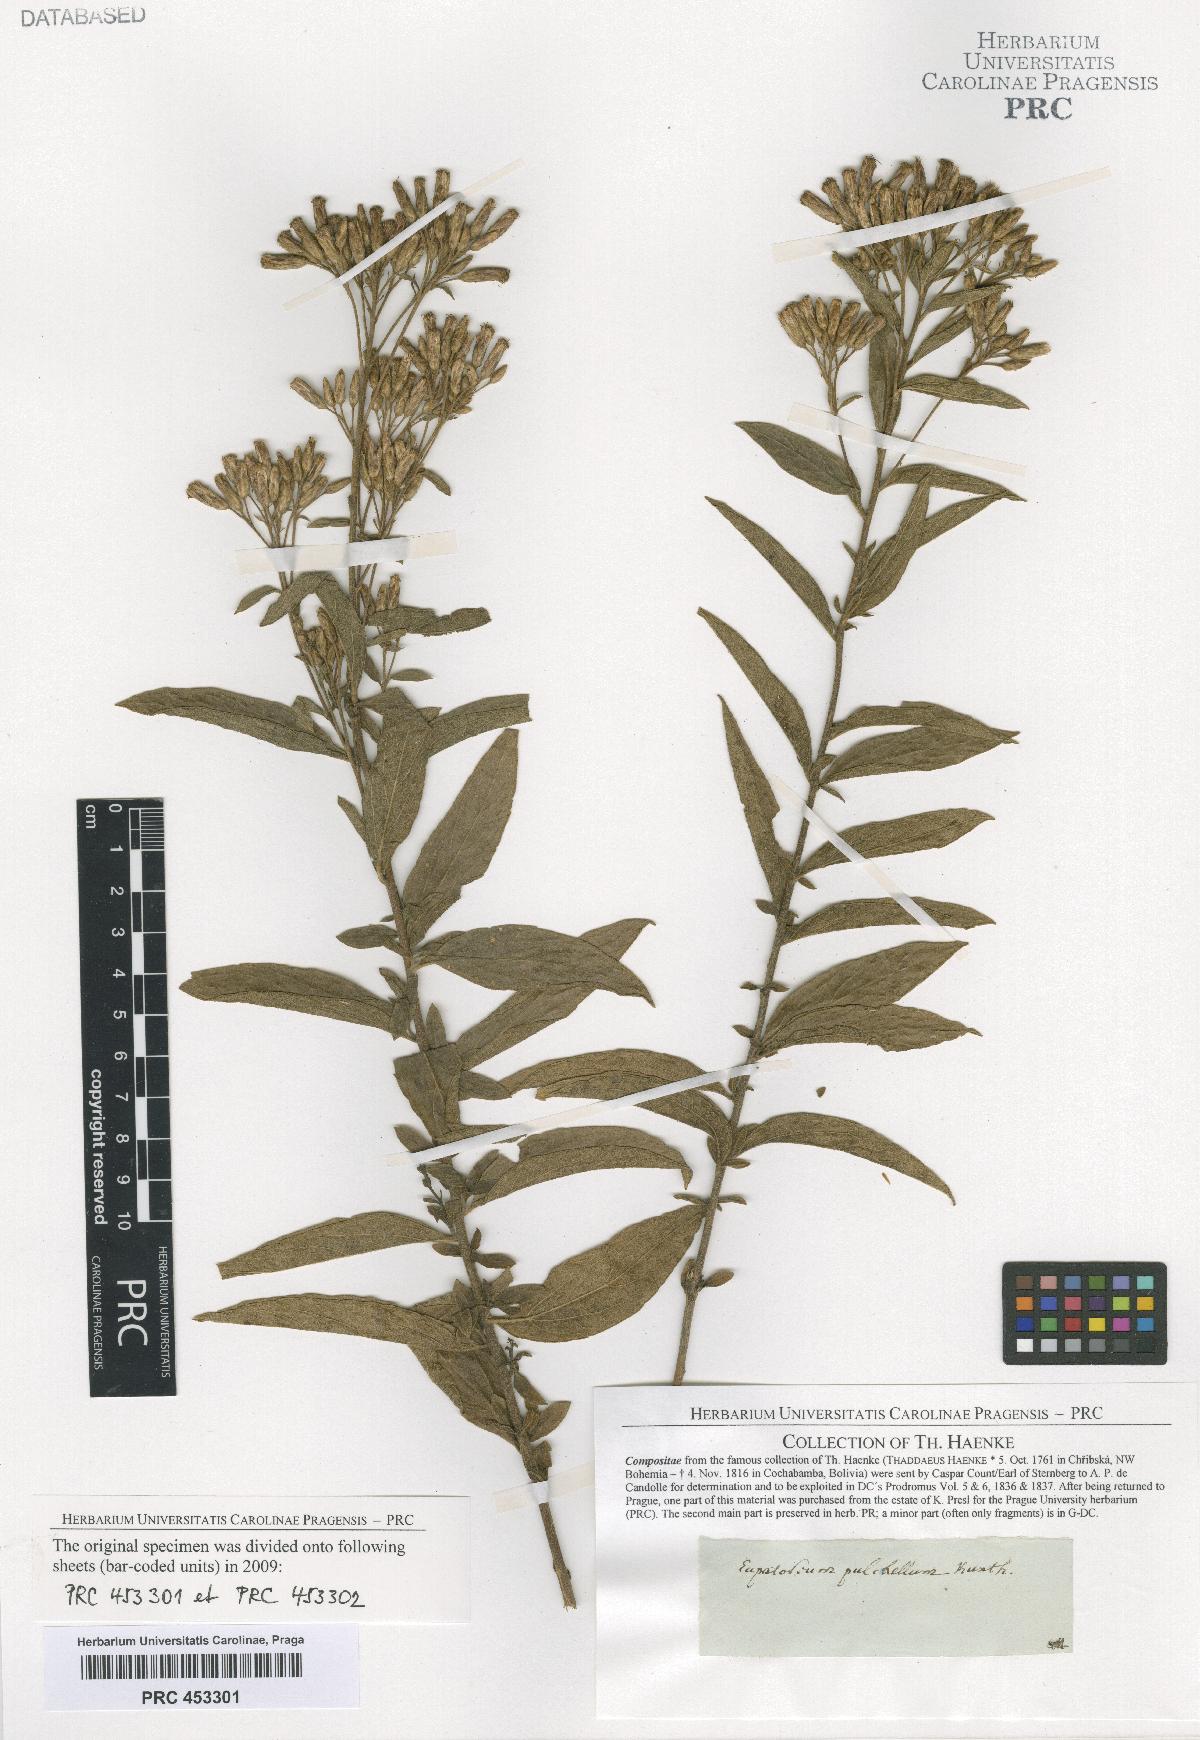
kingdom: Plantae
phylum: Tracheophyta
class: Magnoliopsida
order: Asterales
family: Asteraceae
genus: Chromolaena
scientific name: Chromolaena pulchella
